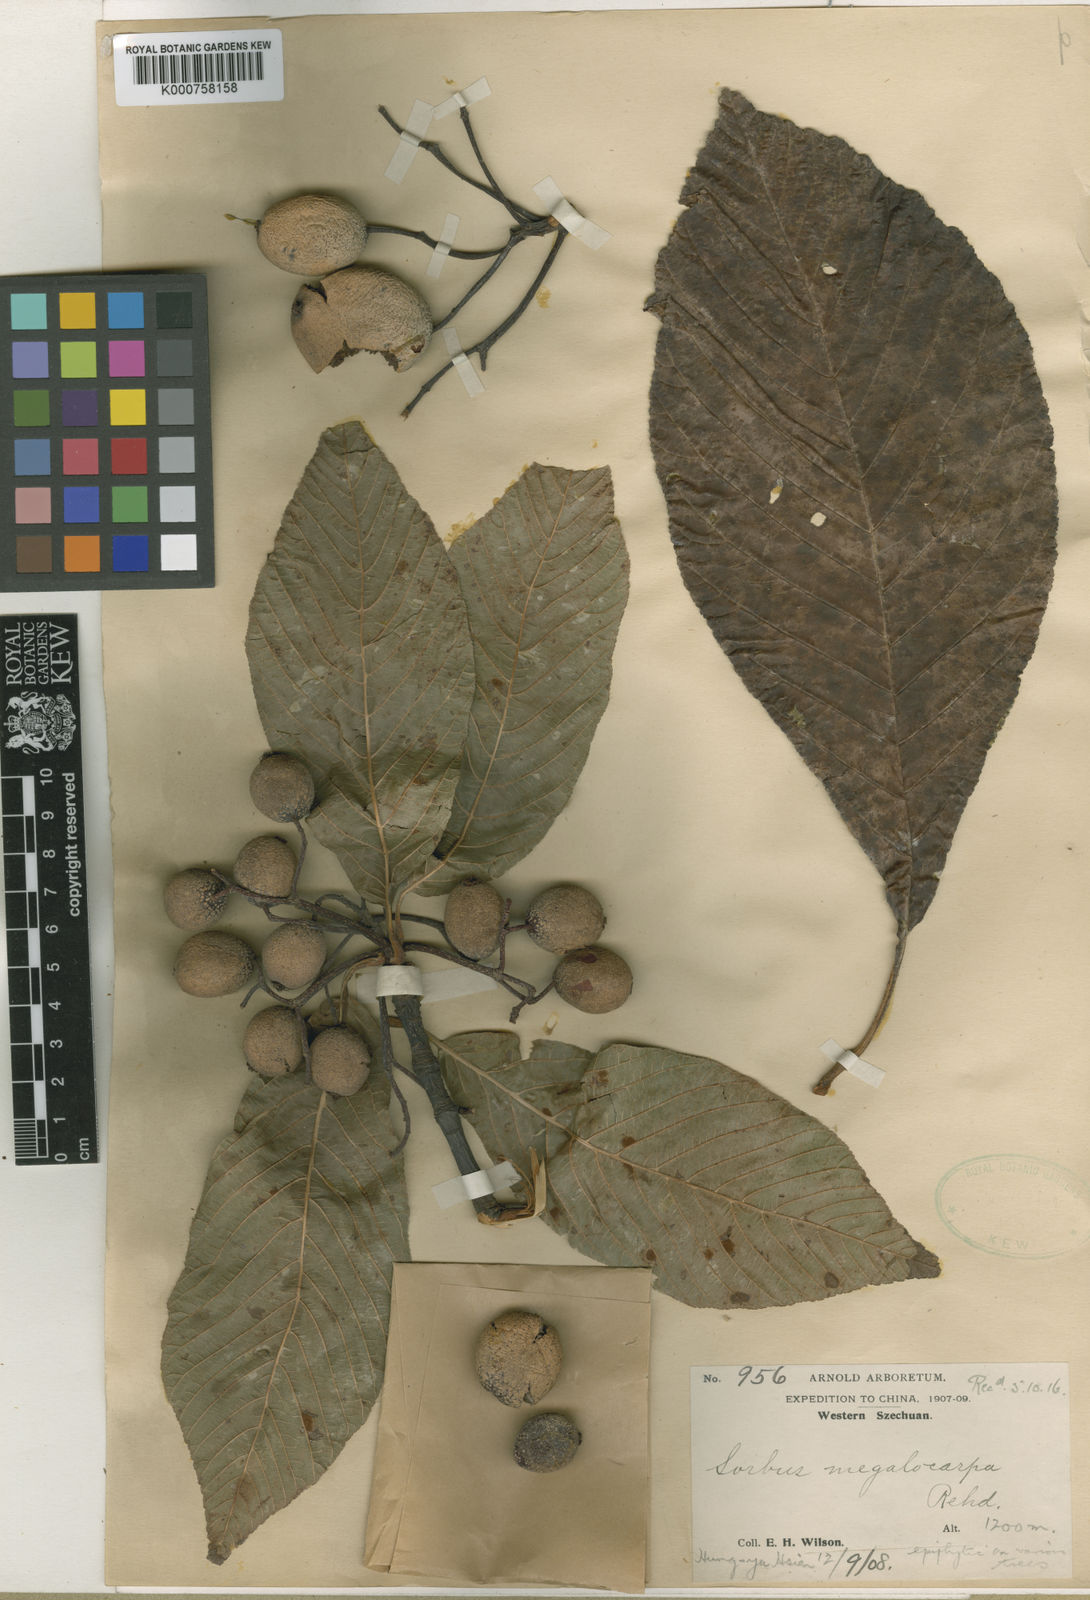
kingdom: Plantae
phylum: Tracheophyta
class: Magnoliopsida
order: Rosales
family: Rosaceae
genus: Sorbus
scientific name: Sorbus megalocarpa
